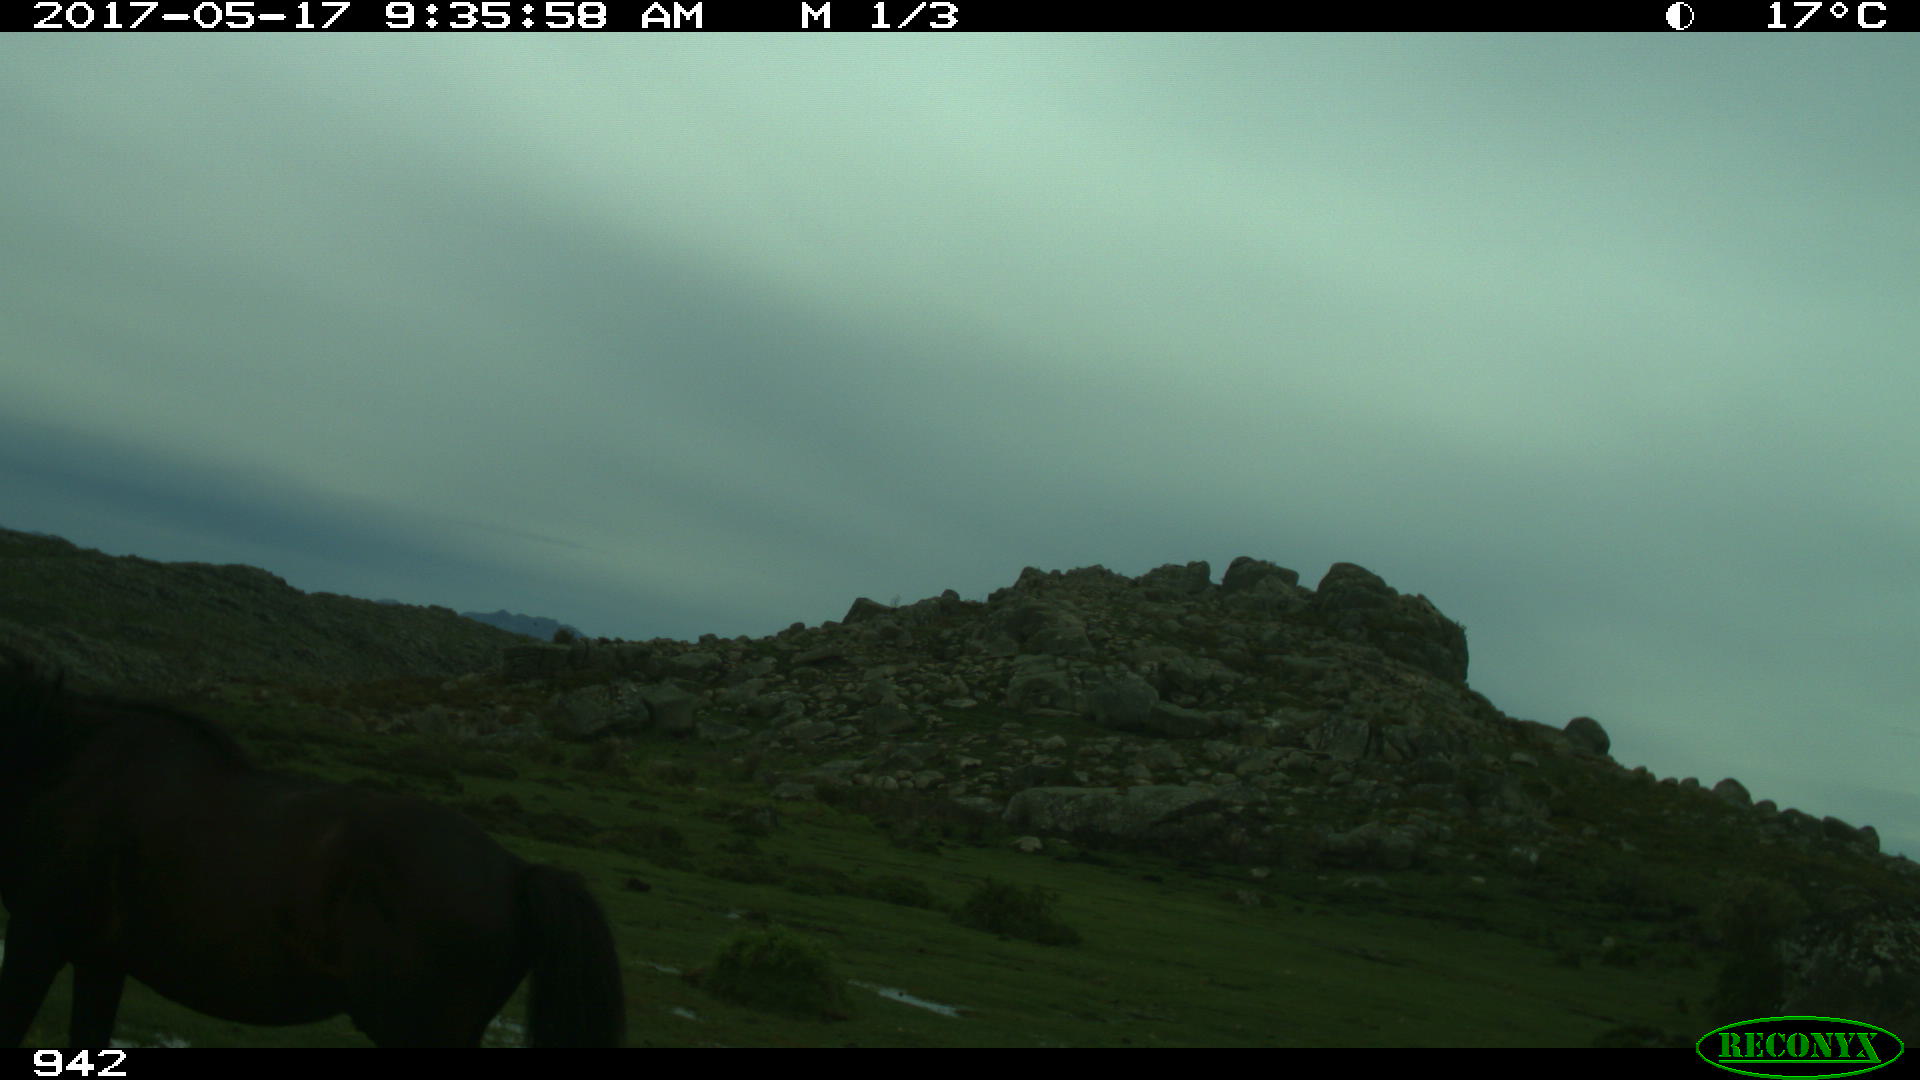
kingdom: Animalia
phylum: Chordata
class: Mammalia
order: Perissodactyla
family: Equidae
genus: Equus
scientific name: Equus caballus
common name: Horse
